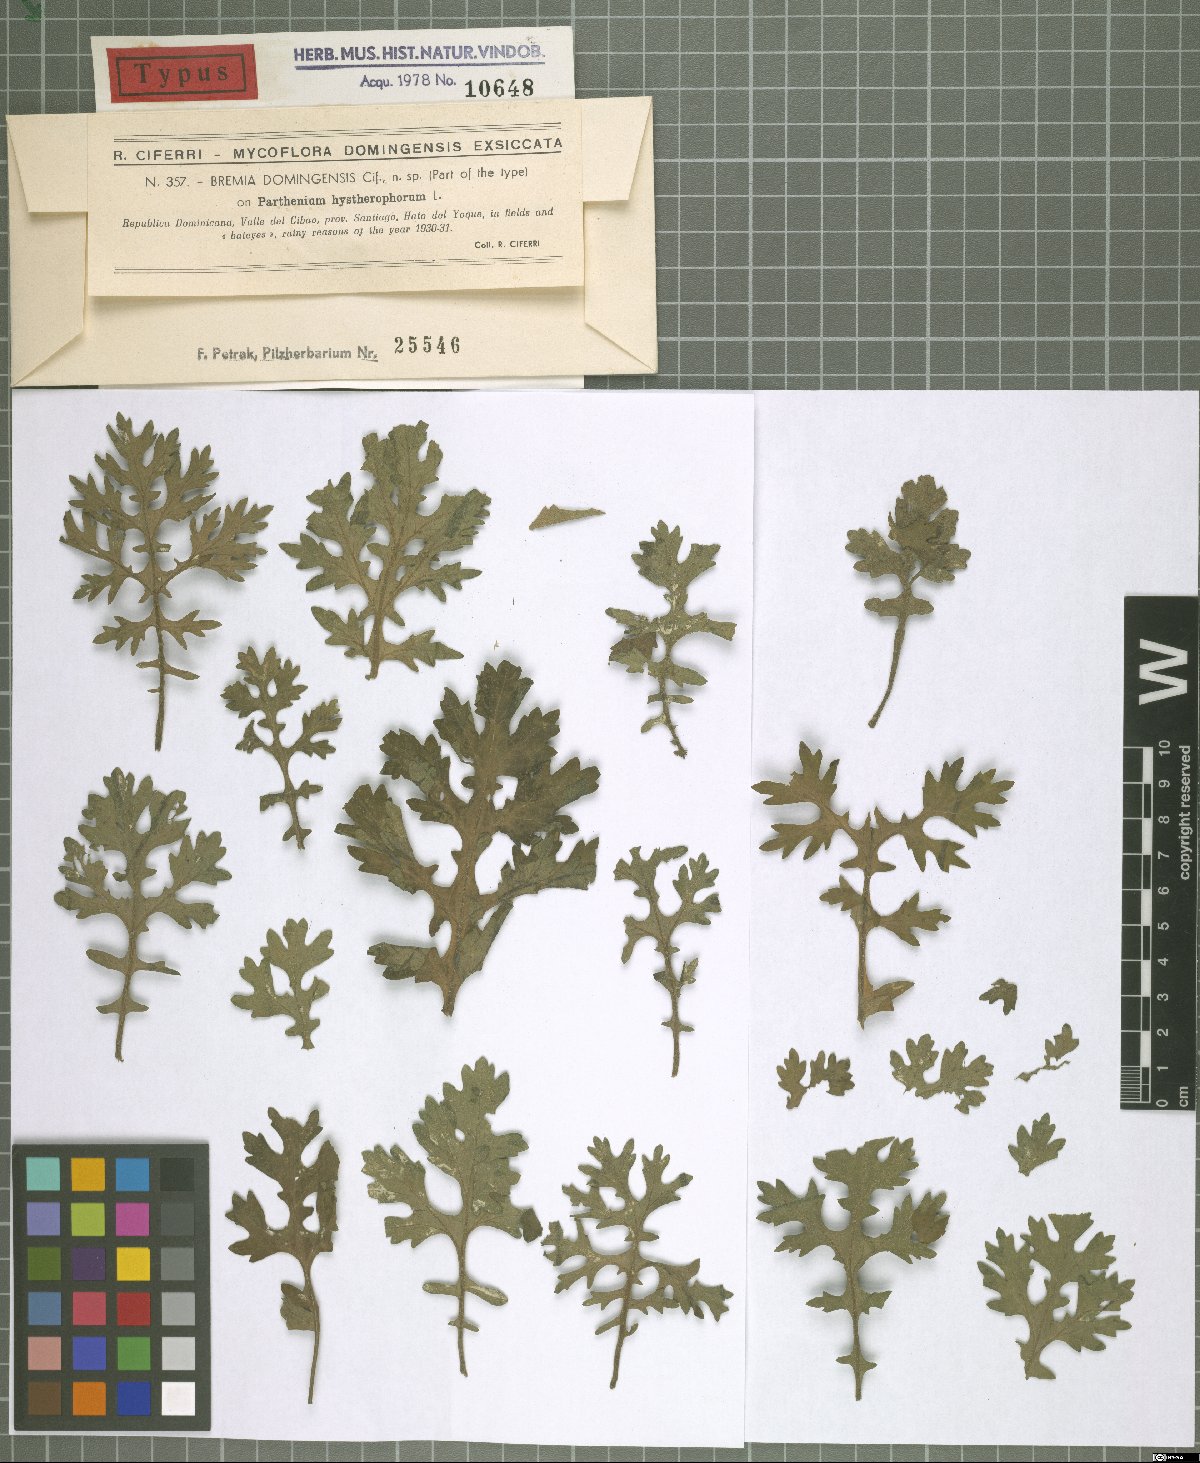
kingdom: Chromista
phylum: Oomycota
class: Peronosporea
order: Peronosporales
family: Peronosporaceae
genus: Plasmopara
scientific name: Plasmopara domingensis
